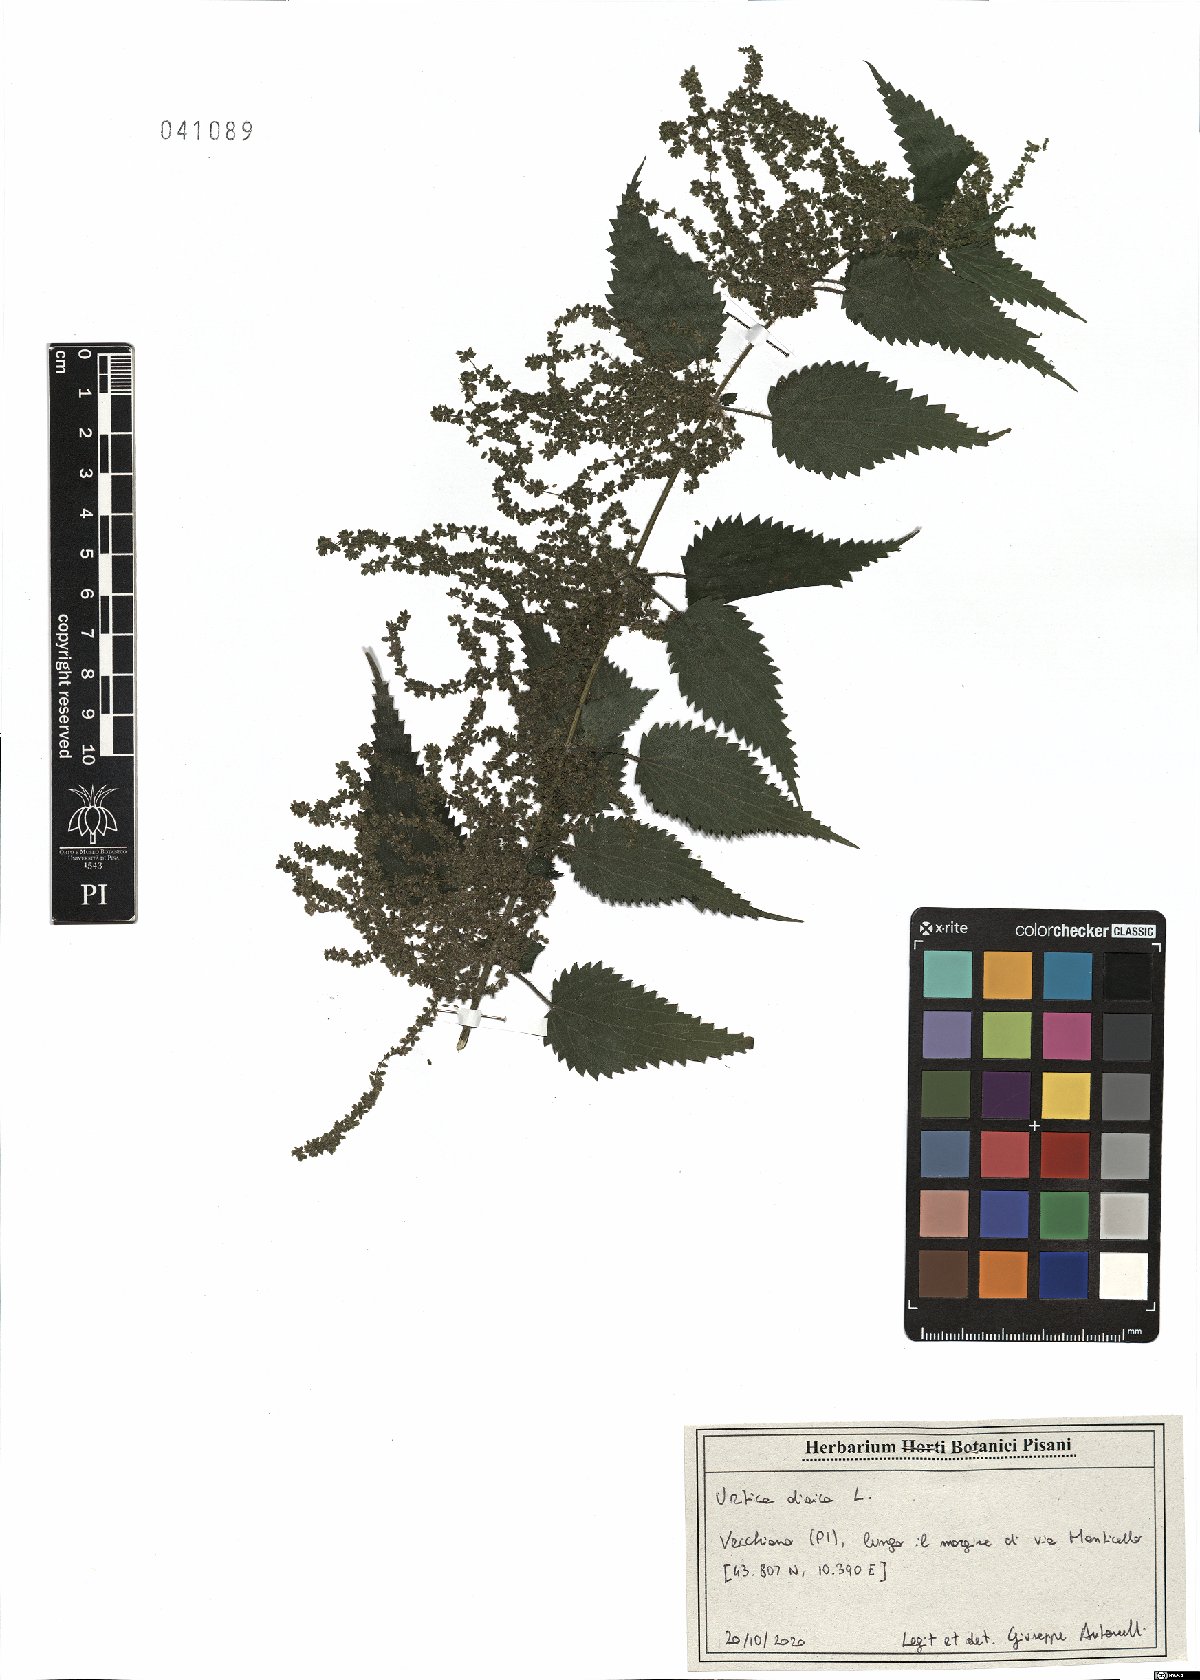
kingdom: Plantae
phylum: Tracheophyta
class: Magnoliopsida
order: Rosales
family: Urticaceae
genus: Urtica
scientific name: Urtica dioica
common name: Common nettle
